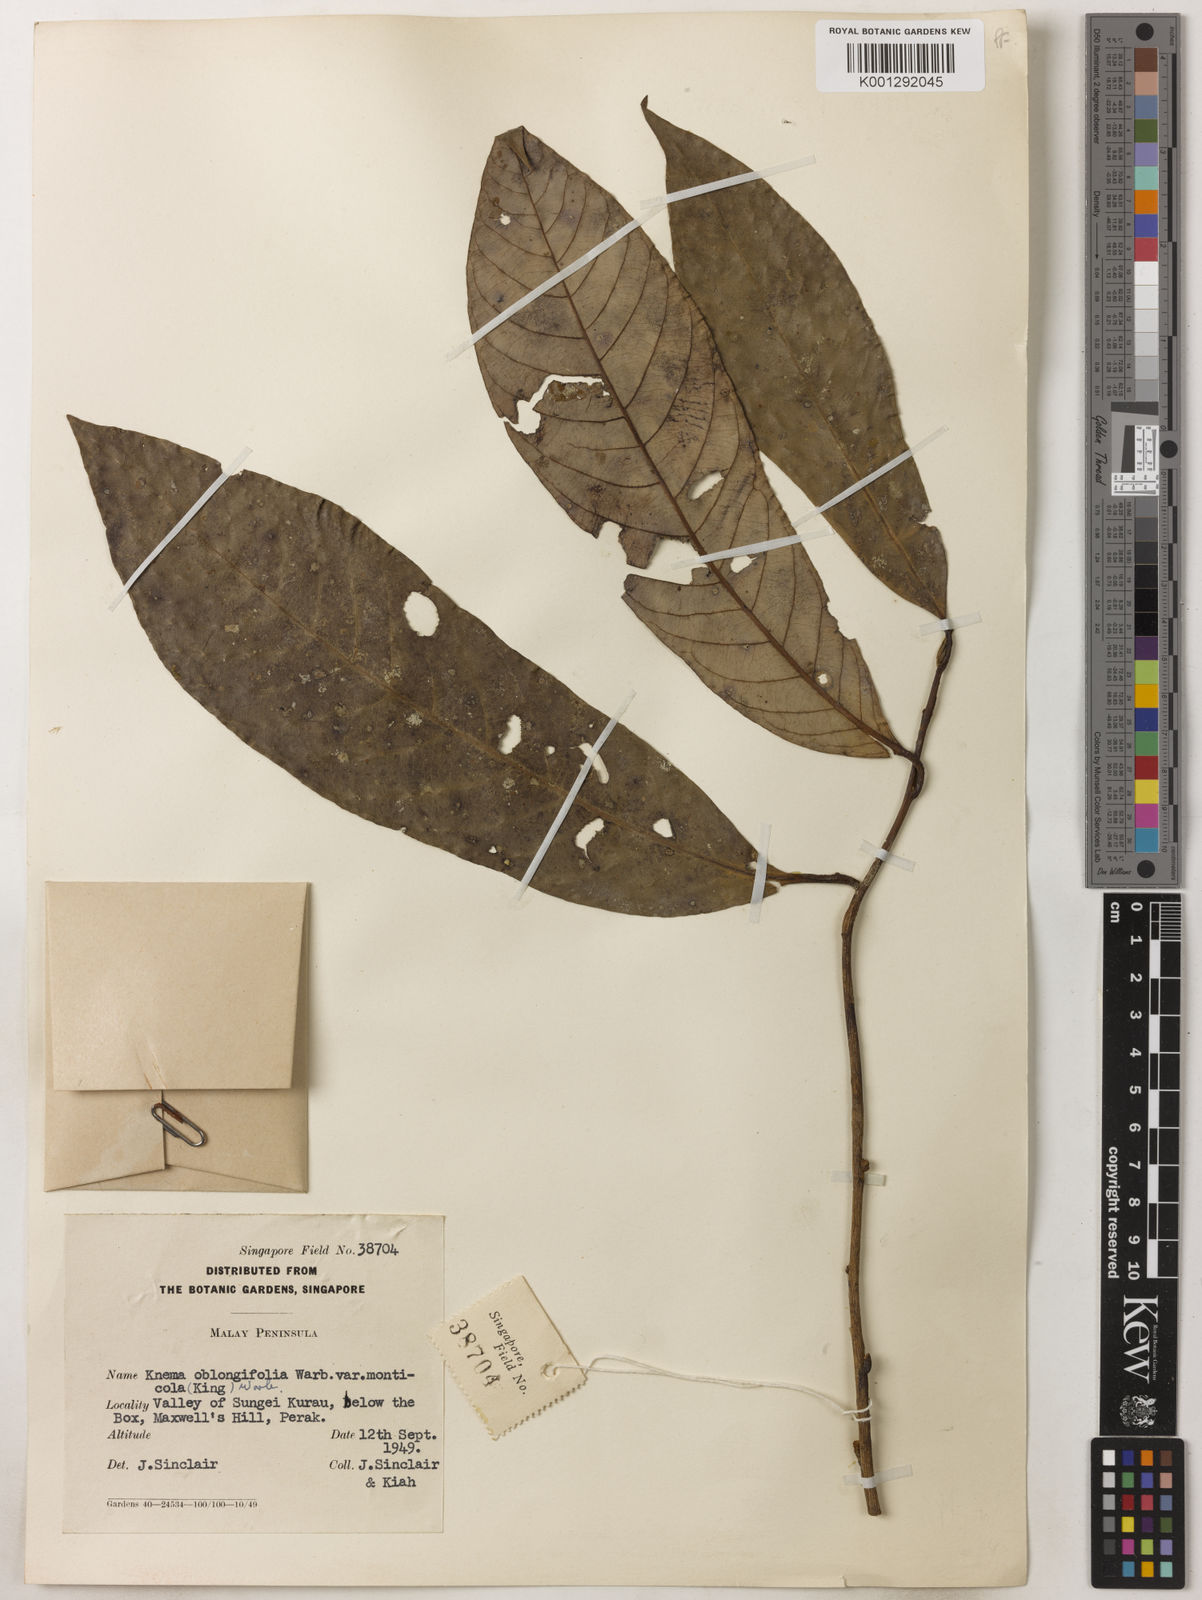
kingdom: Plantae
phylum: Tracheophyta
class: Magnoliopsida
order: Magnoliales
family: Myristicaceae
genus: Knema
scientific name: Knema
